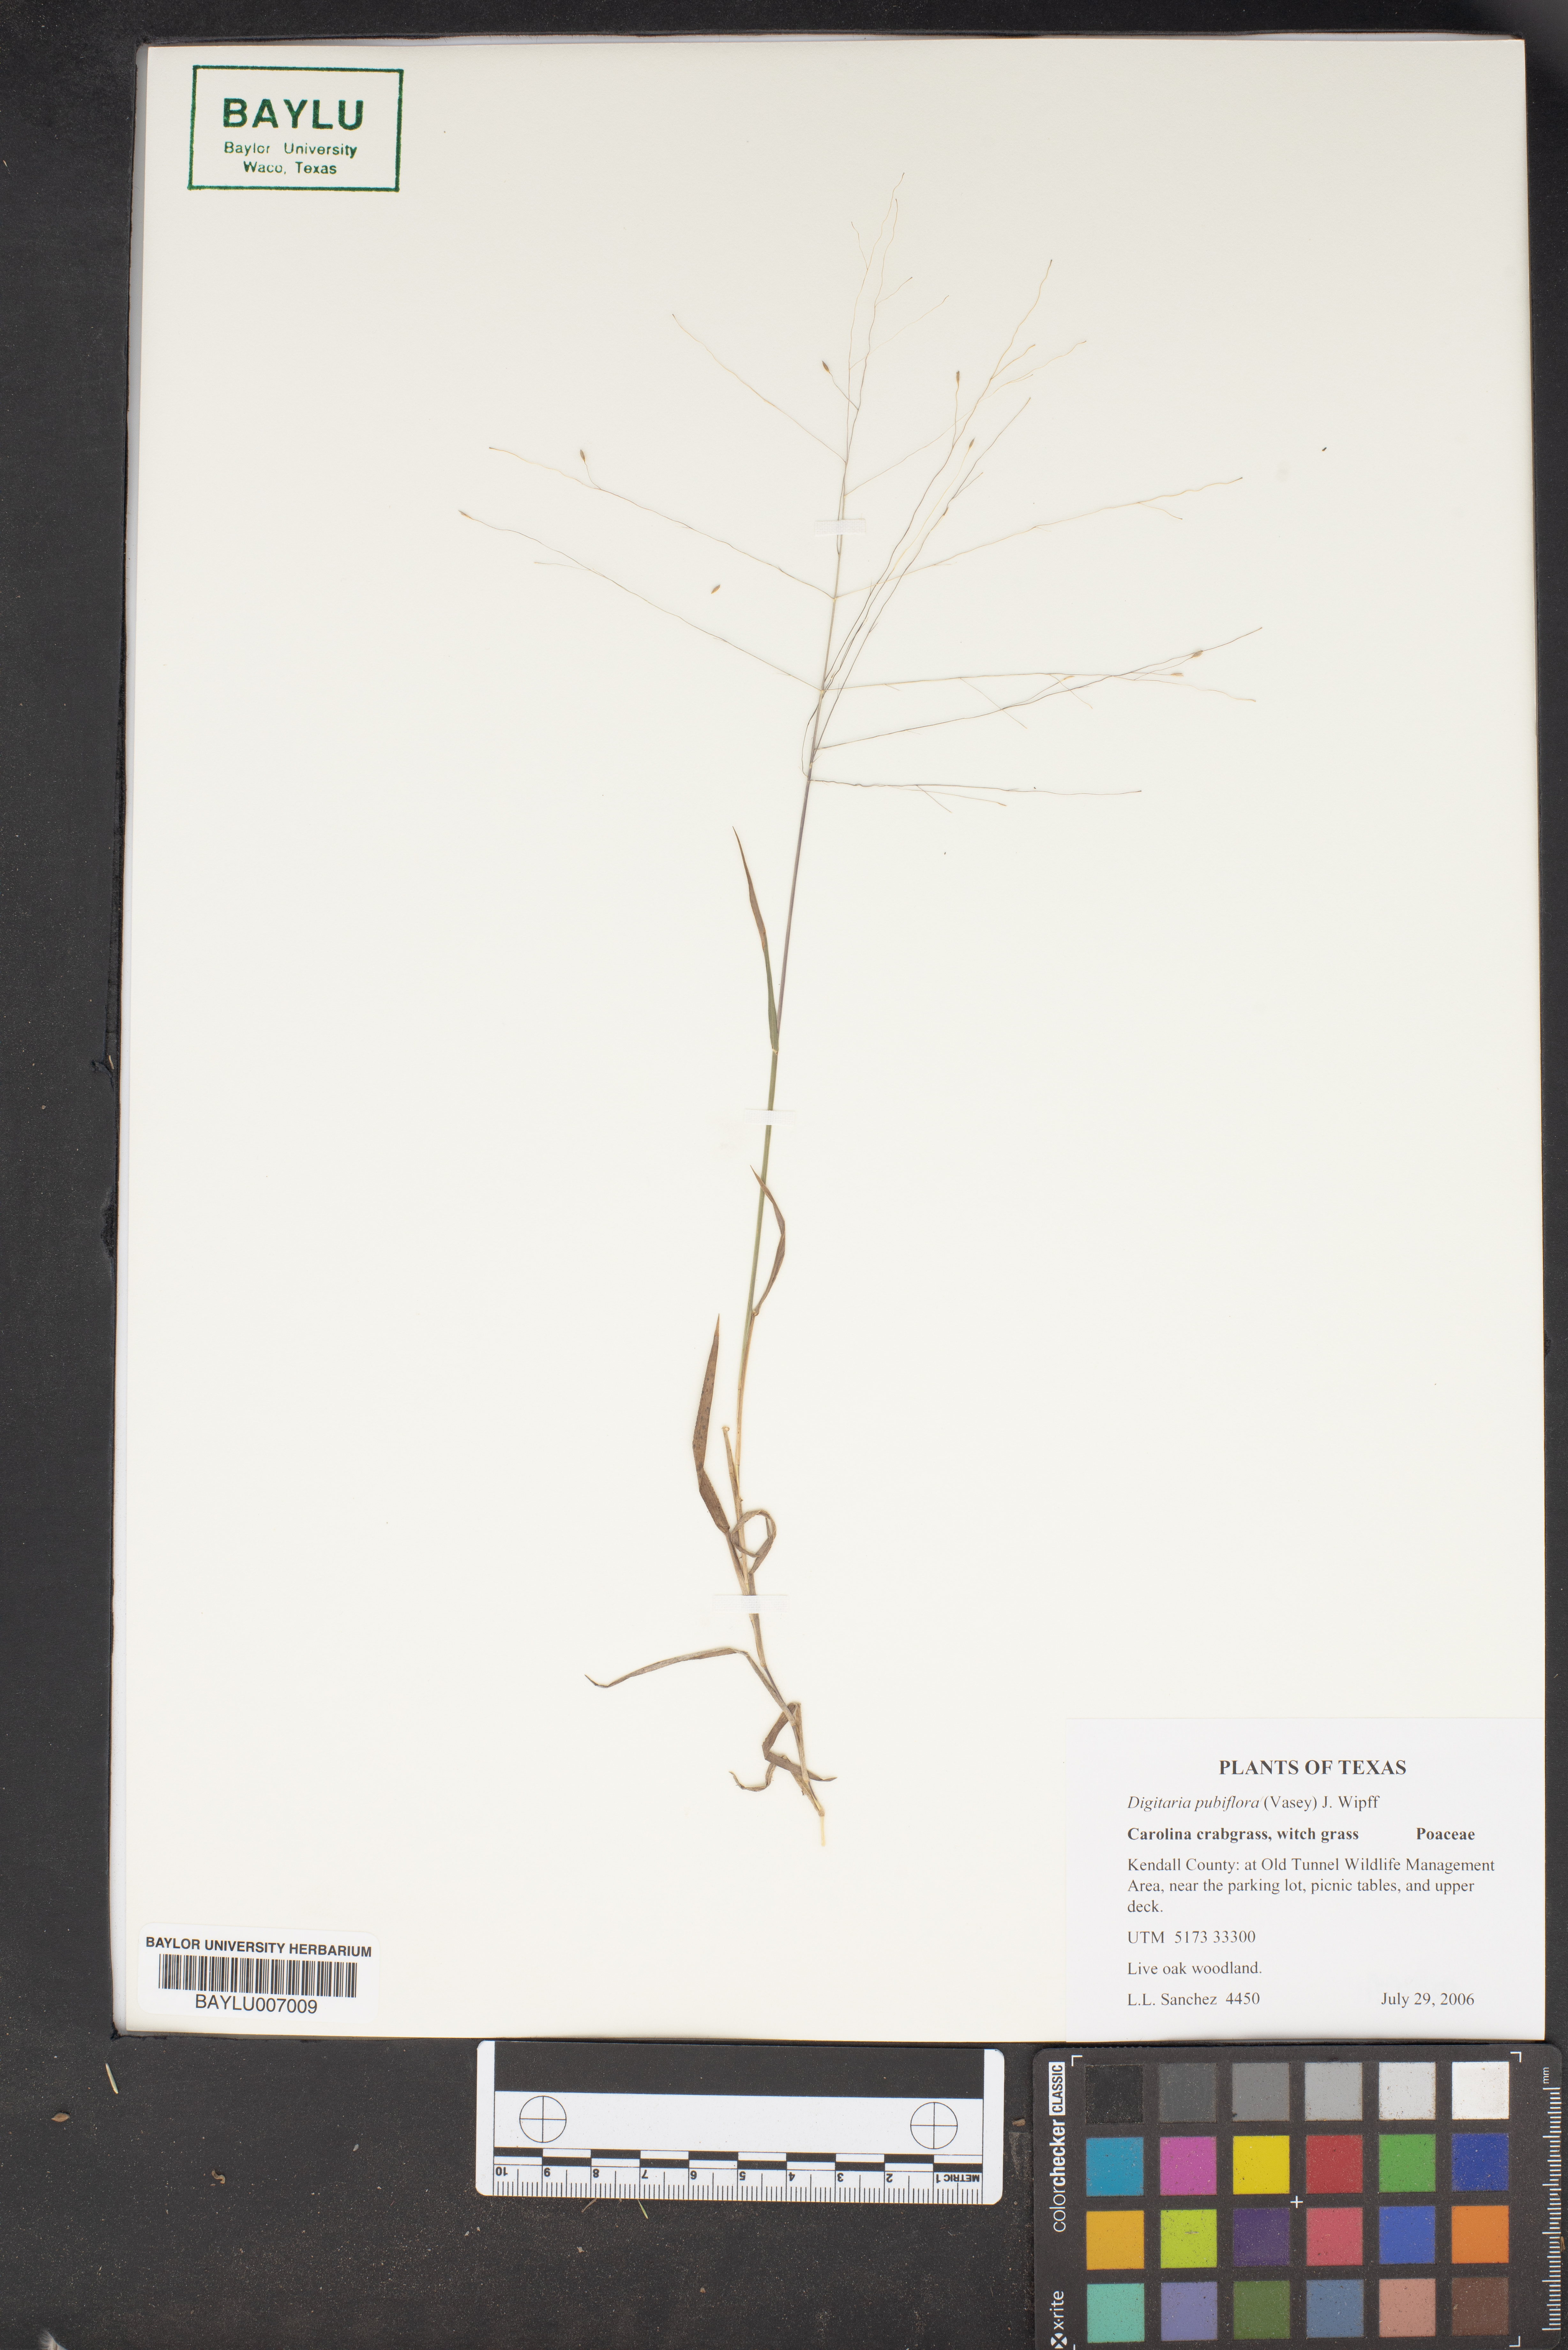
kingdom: Plantae
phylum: Tracheophyta
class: Liliopsida
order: Poales
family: Poaceae
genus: Digitaria
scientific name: Digitaria pubiflora
